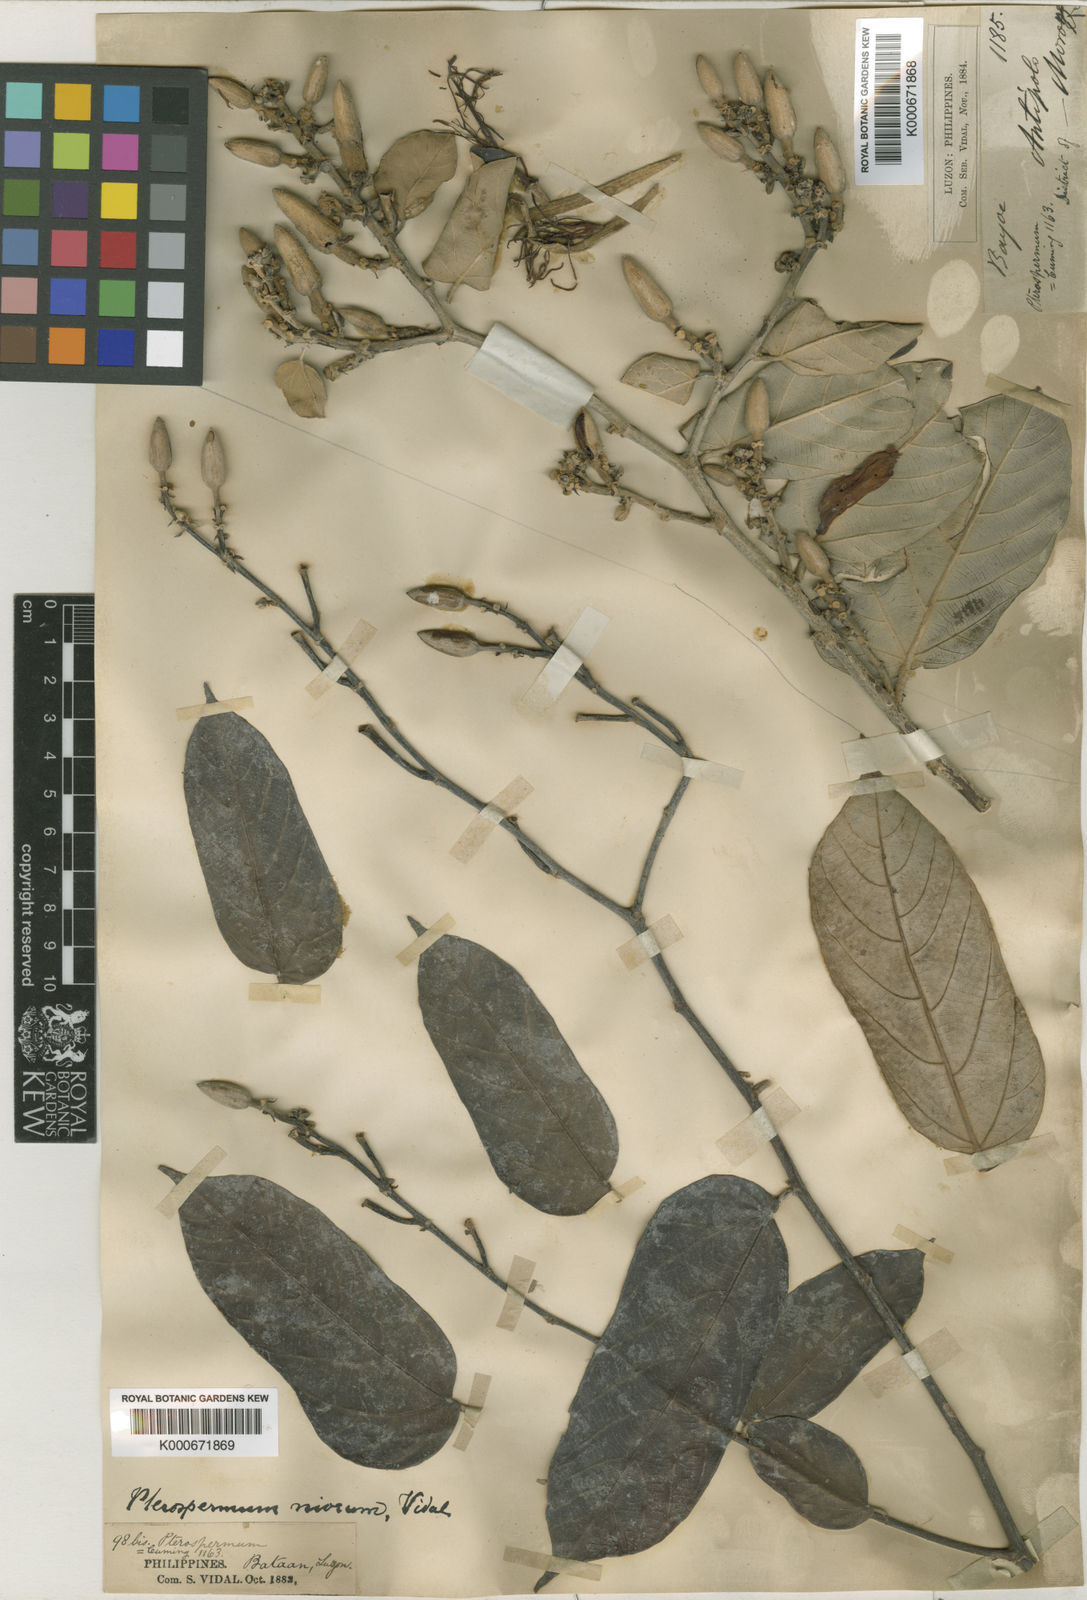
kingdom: Plantae
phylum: Tracheophyta
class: Magnoliopsida
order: Malvales
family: Malvaceae
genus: Pterospermum
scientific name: Pterospermum niveum
